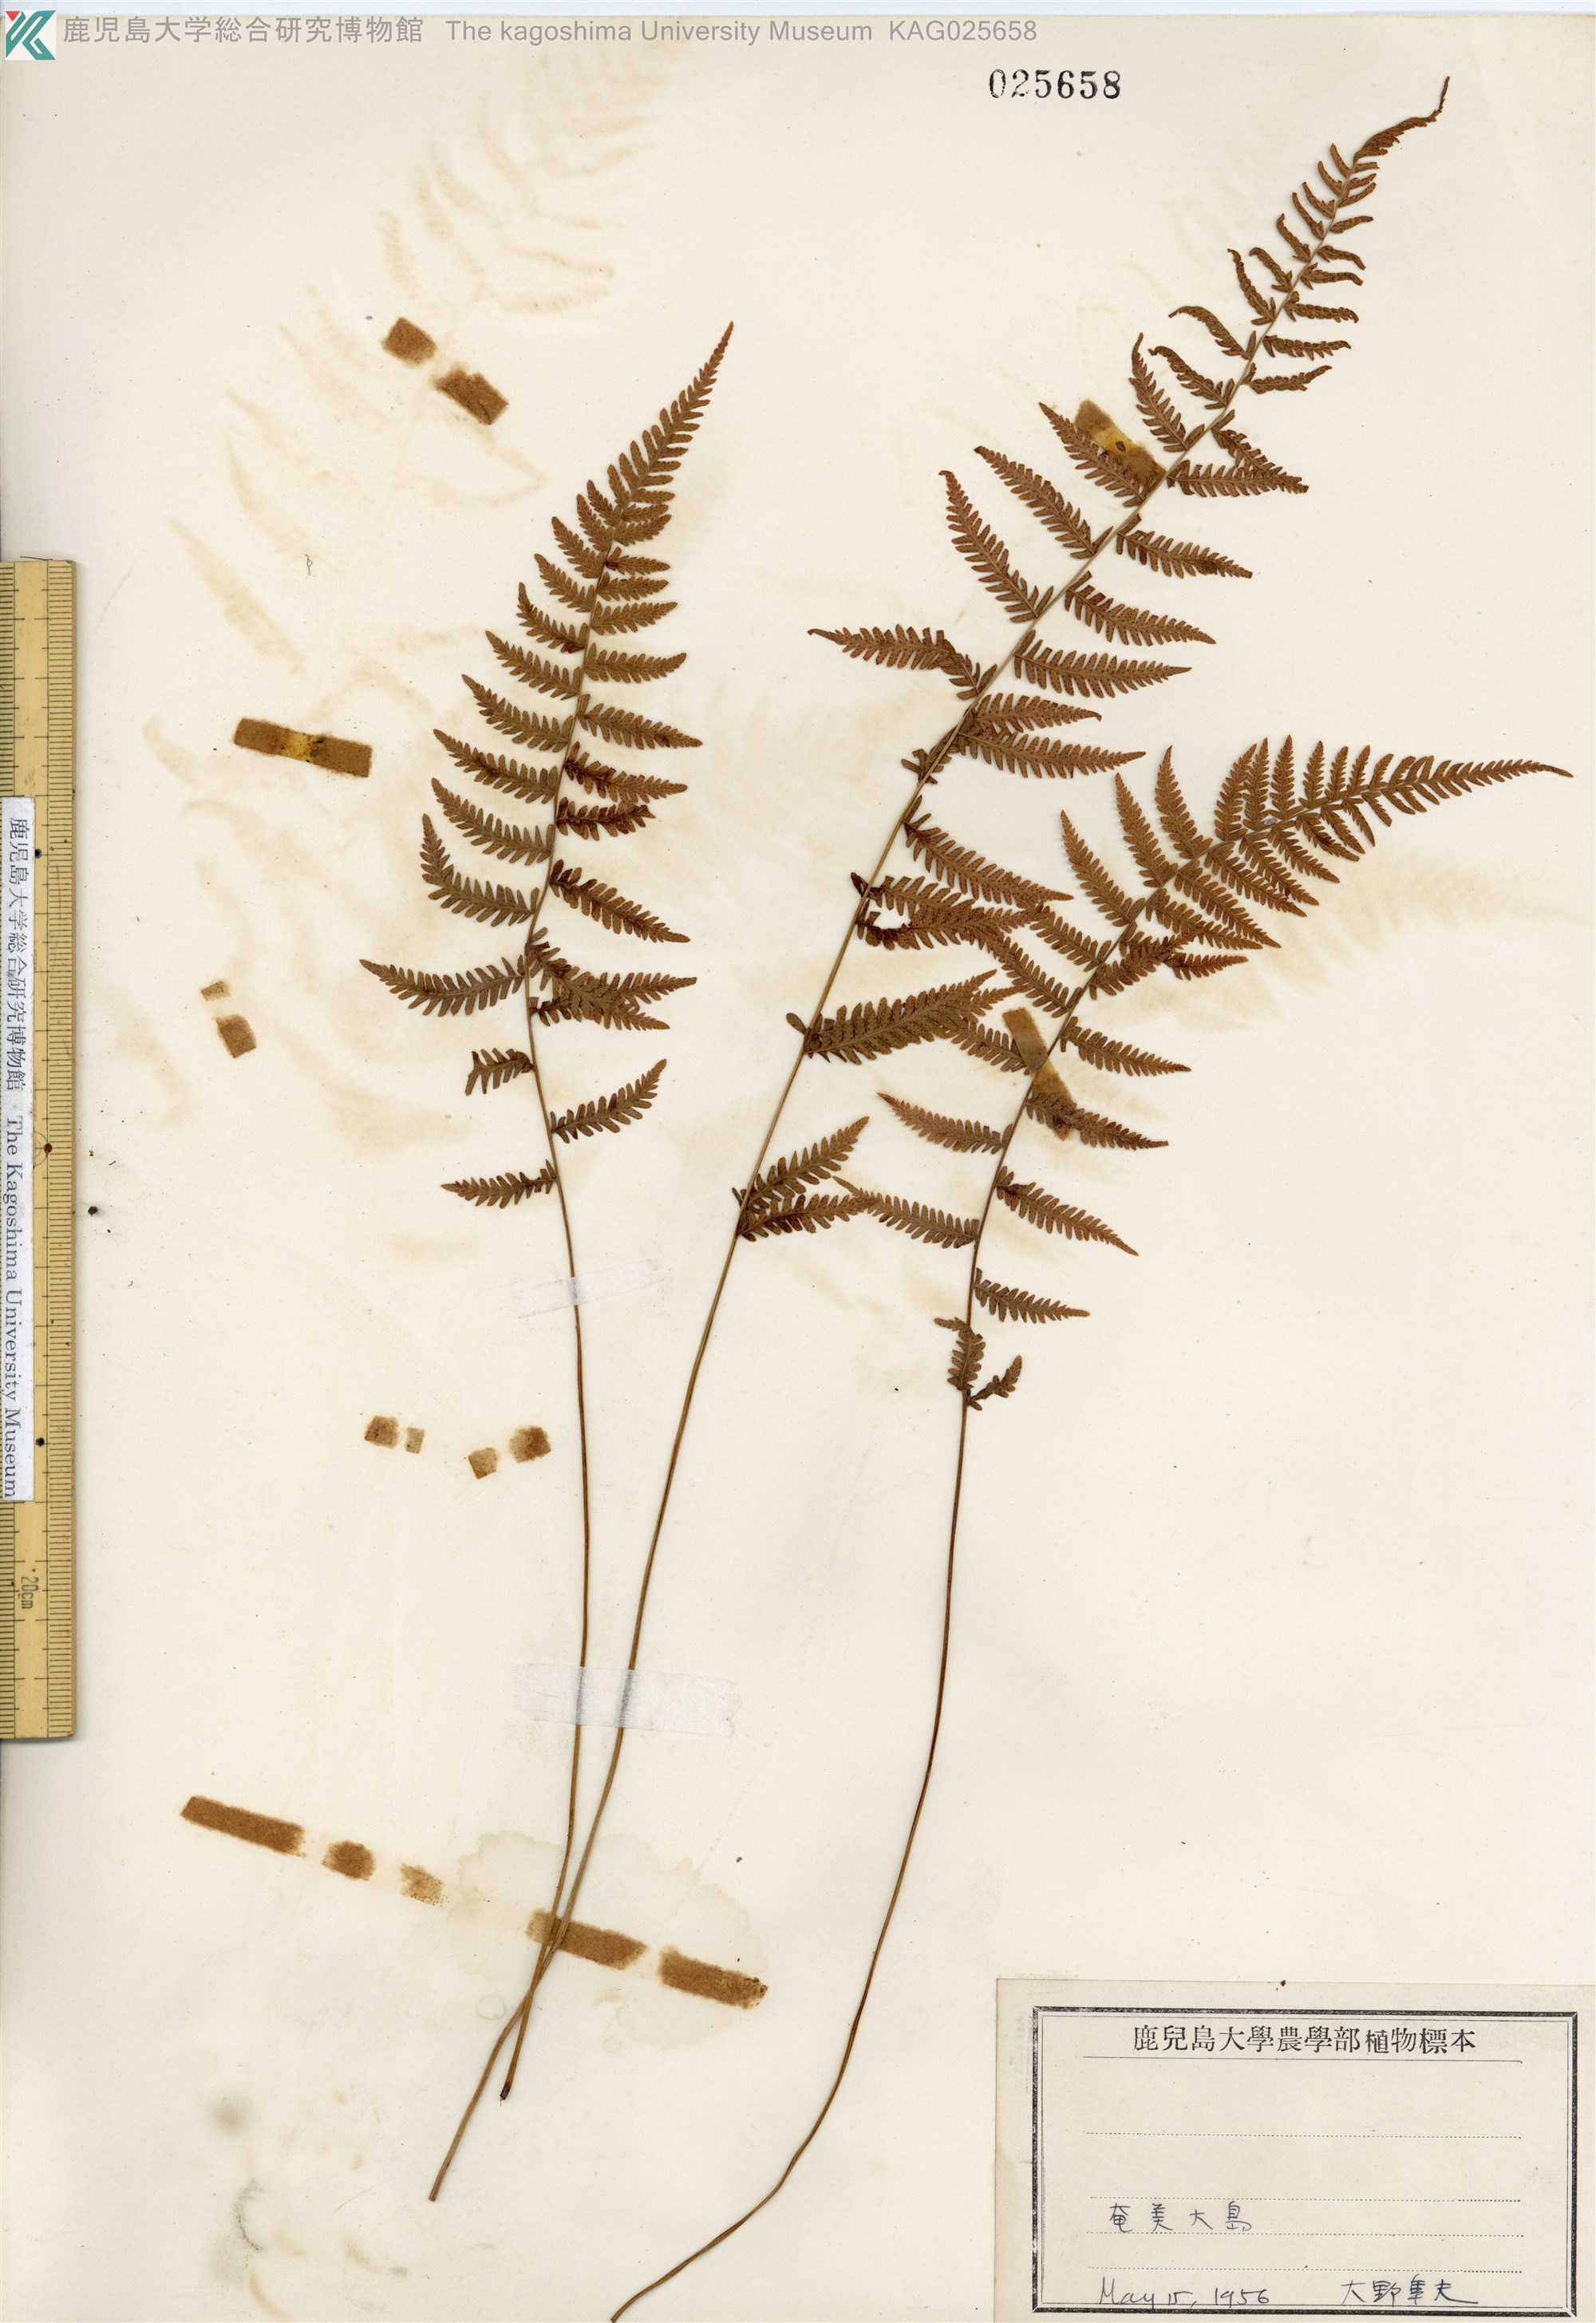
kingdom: Plantae
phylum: Tracheophyta
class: Polypodiopsida
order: Polypodiales
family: Thelypteridaceae
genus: Amauropelta
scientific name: Amauropelta angustifrons
